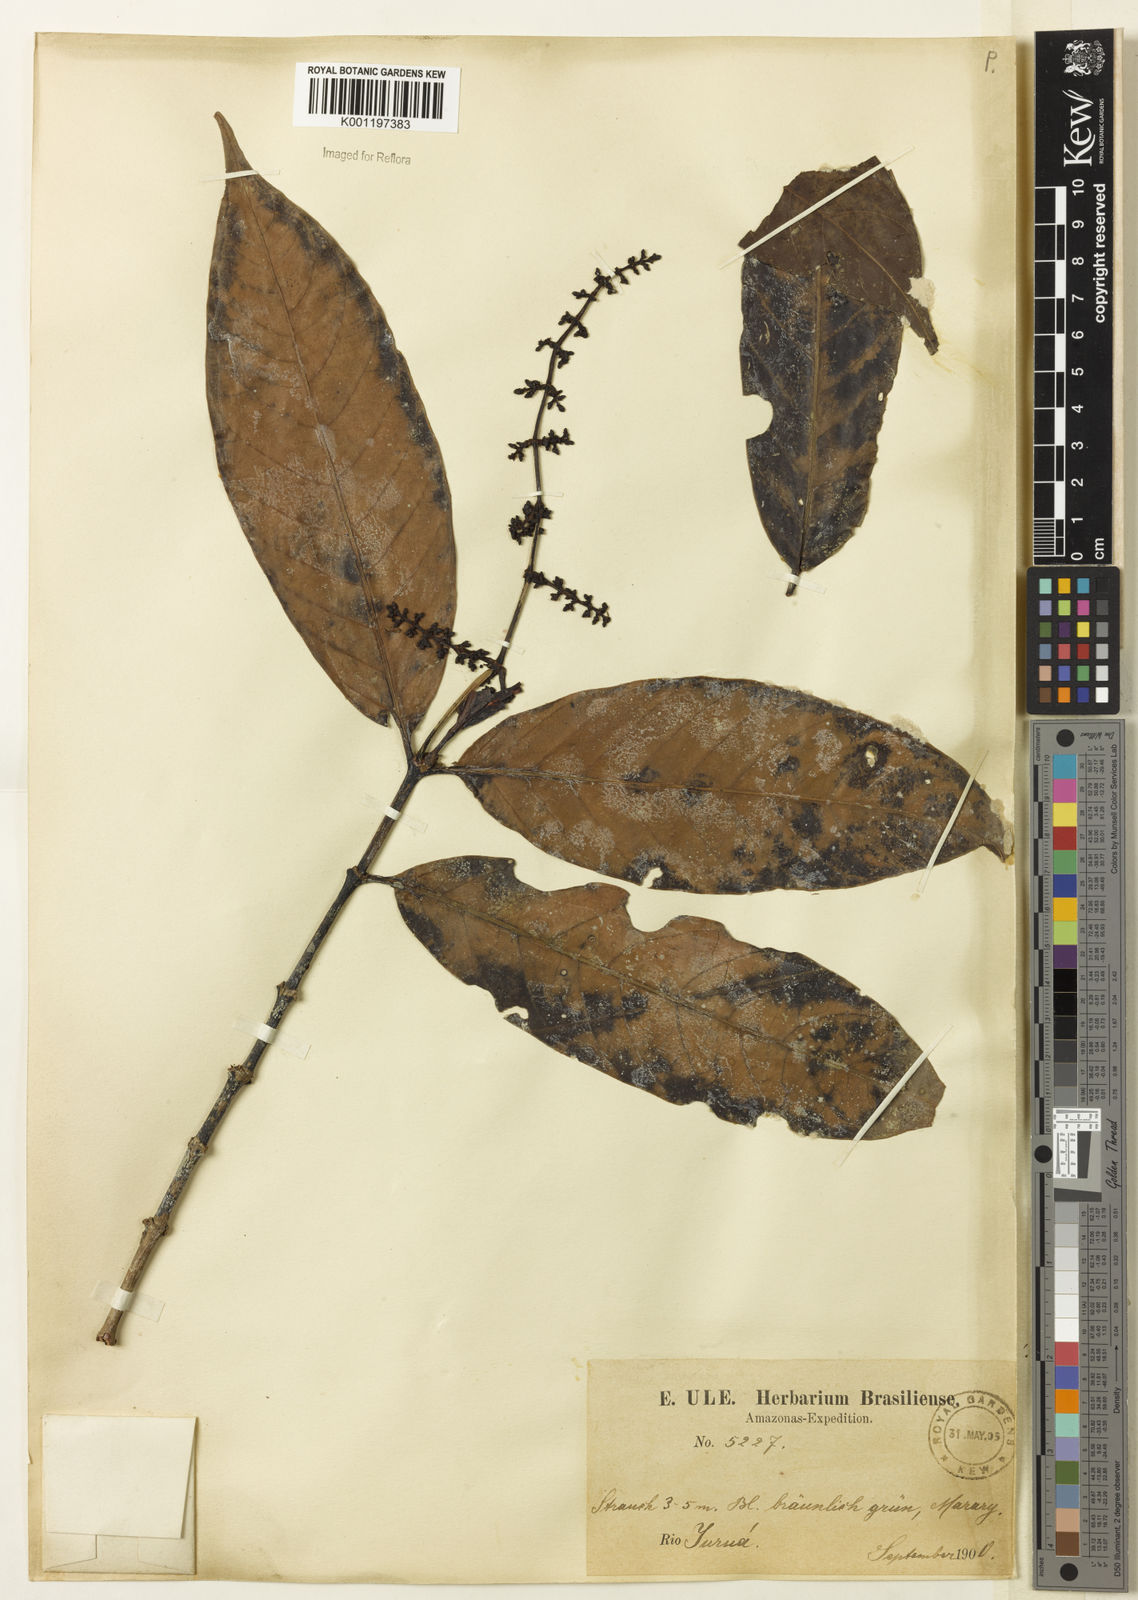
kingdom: Plantae
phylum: Tracheophyta
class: Magnoliopsida
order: Gentianales
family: Rubiaceae
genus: Psychotria
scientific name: Psychotria remota
